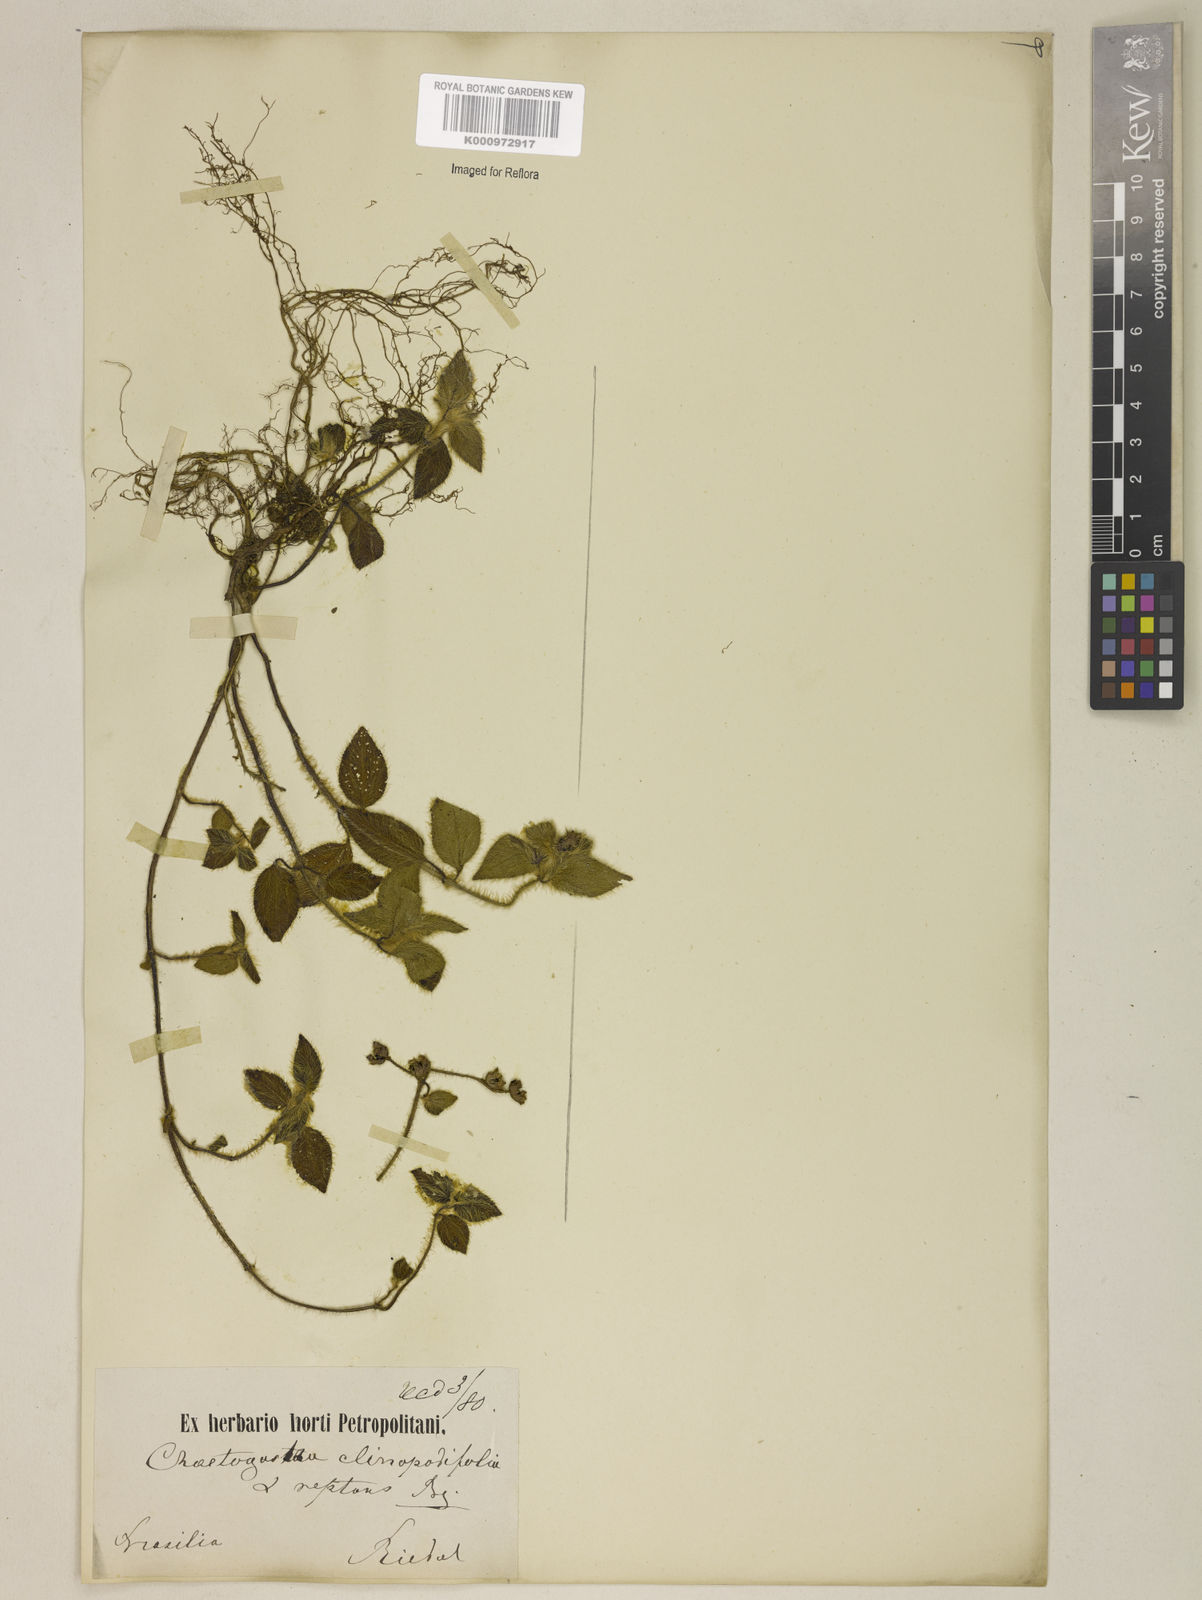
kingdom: Plantae
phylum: Tracheophyta
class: Magnoliopsida
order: Myrtales
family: Melastomataceae
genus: Chaetogastra
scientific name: Chaetogastra clinopodifolia
